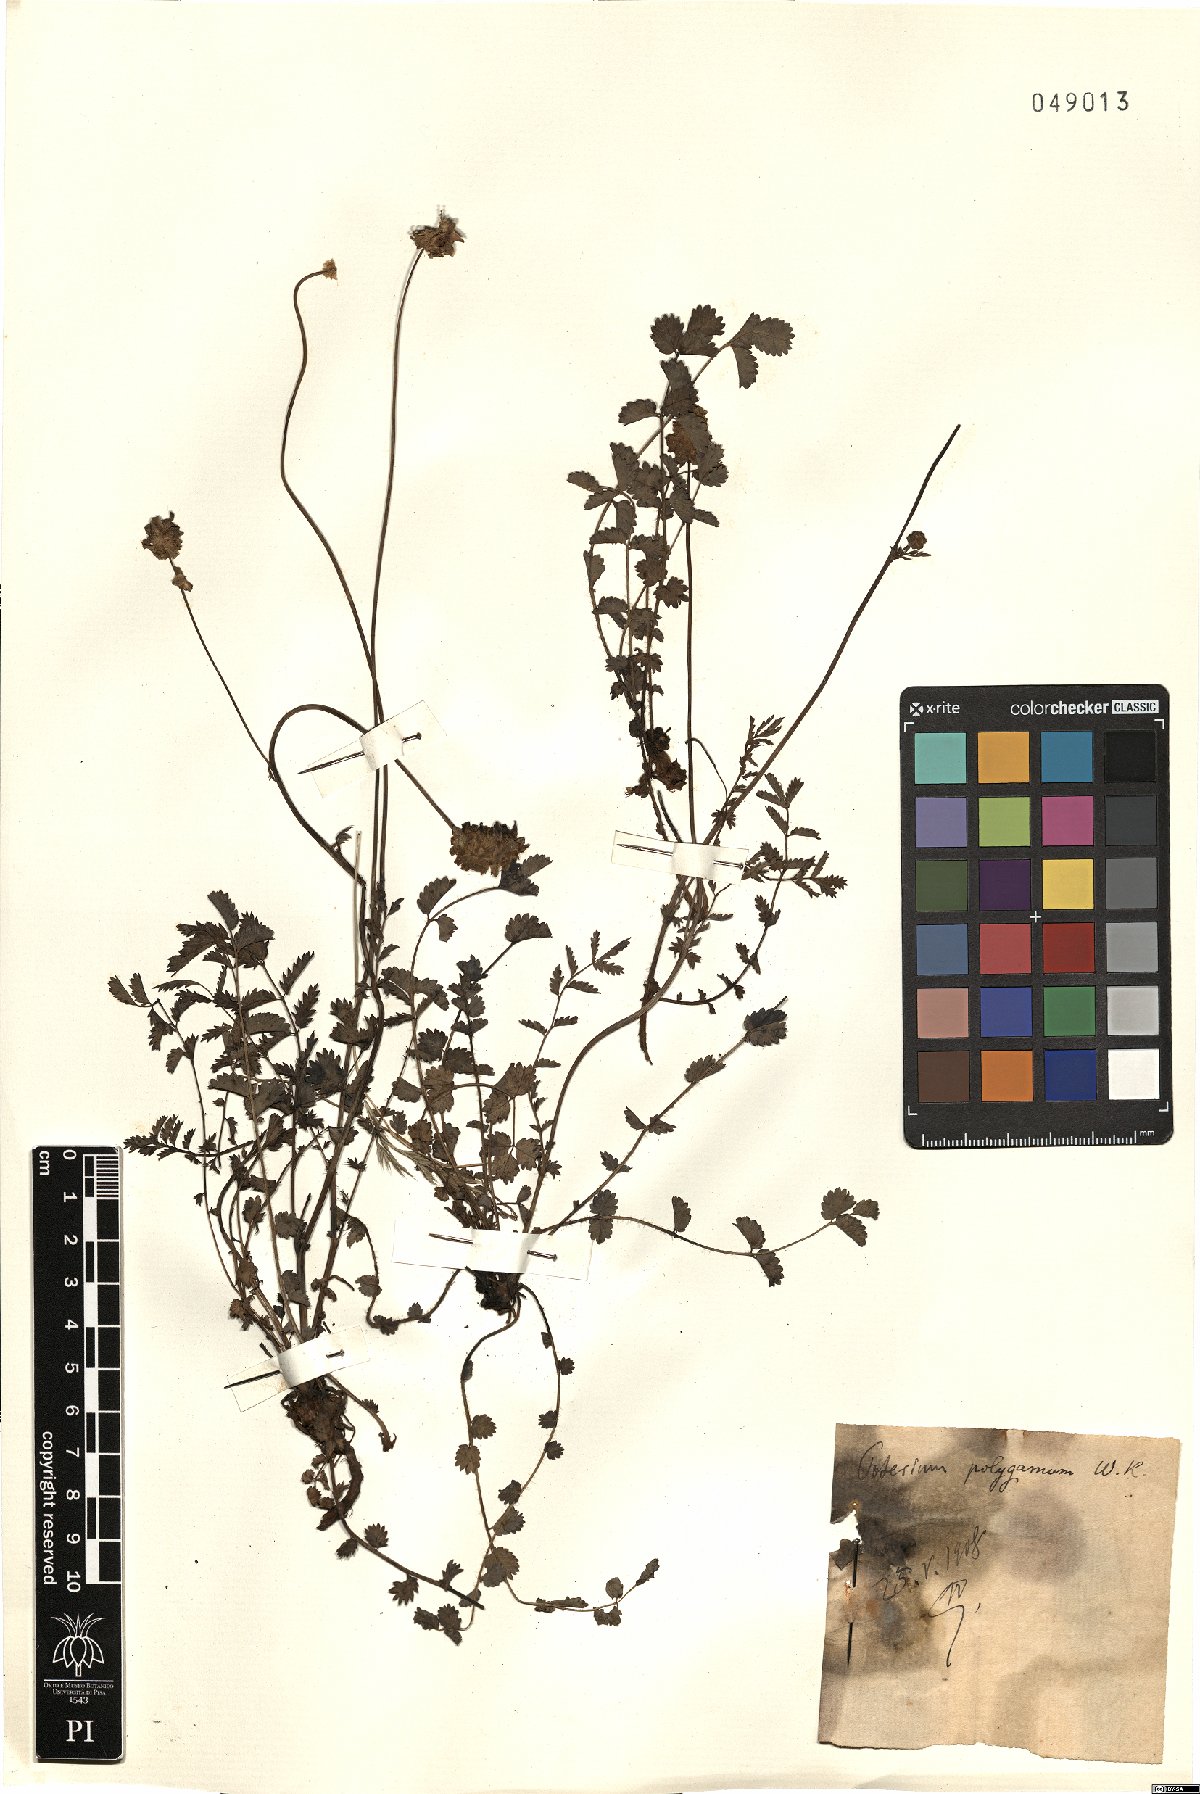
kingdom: Plantae
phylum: Tracheophyta
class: Magnoliopsida
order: Rosales
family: Rosaceae
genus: Poterium
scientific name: Poterium sanguisorba
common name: Salad burnet
